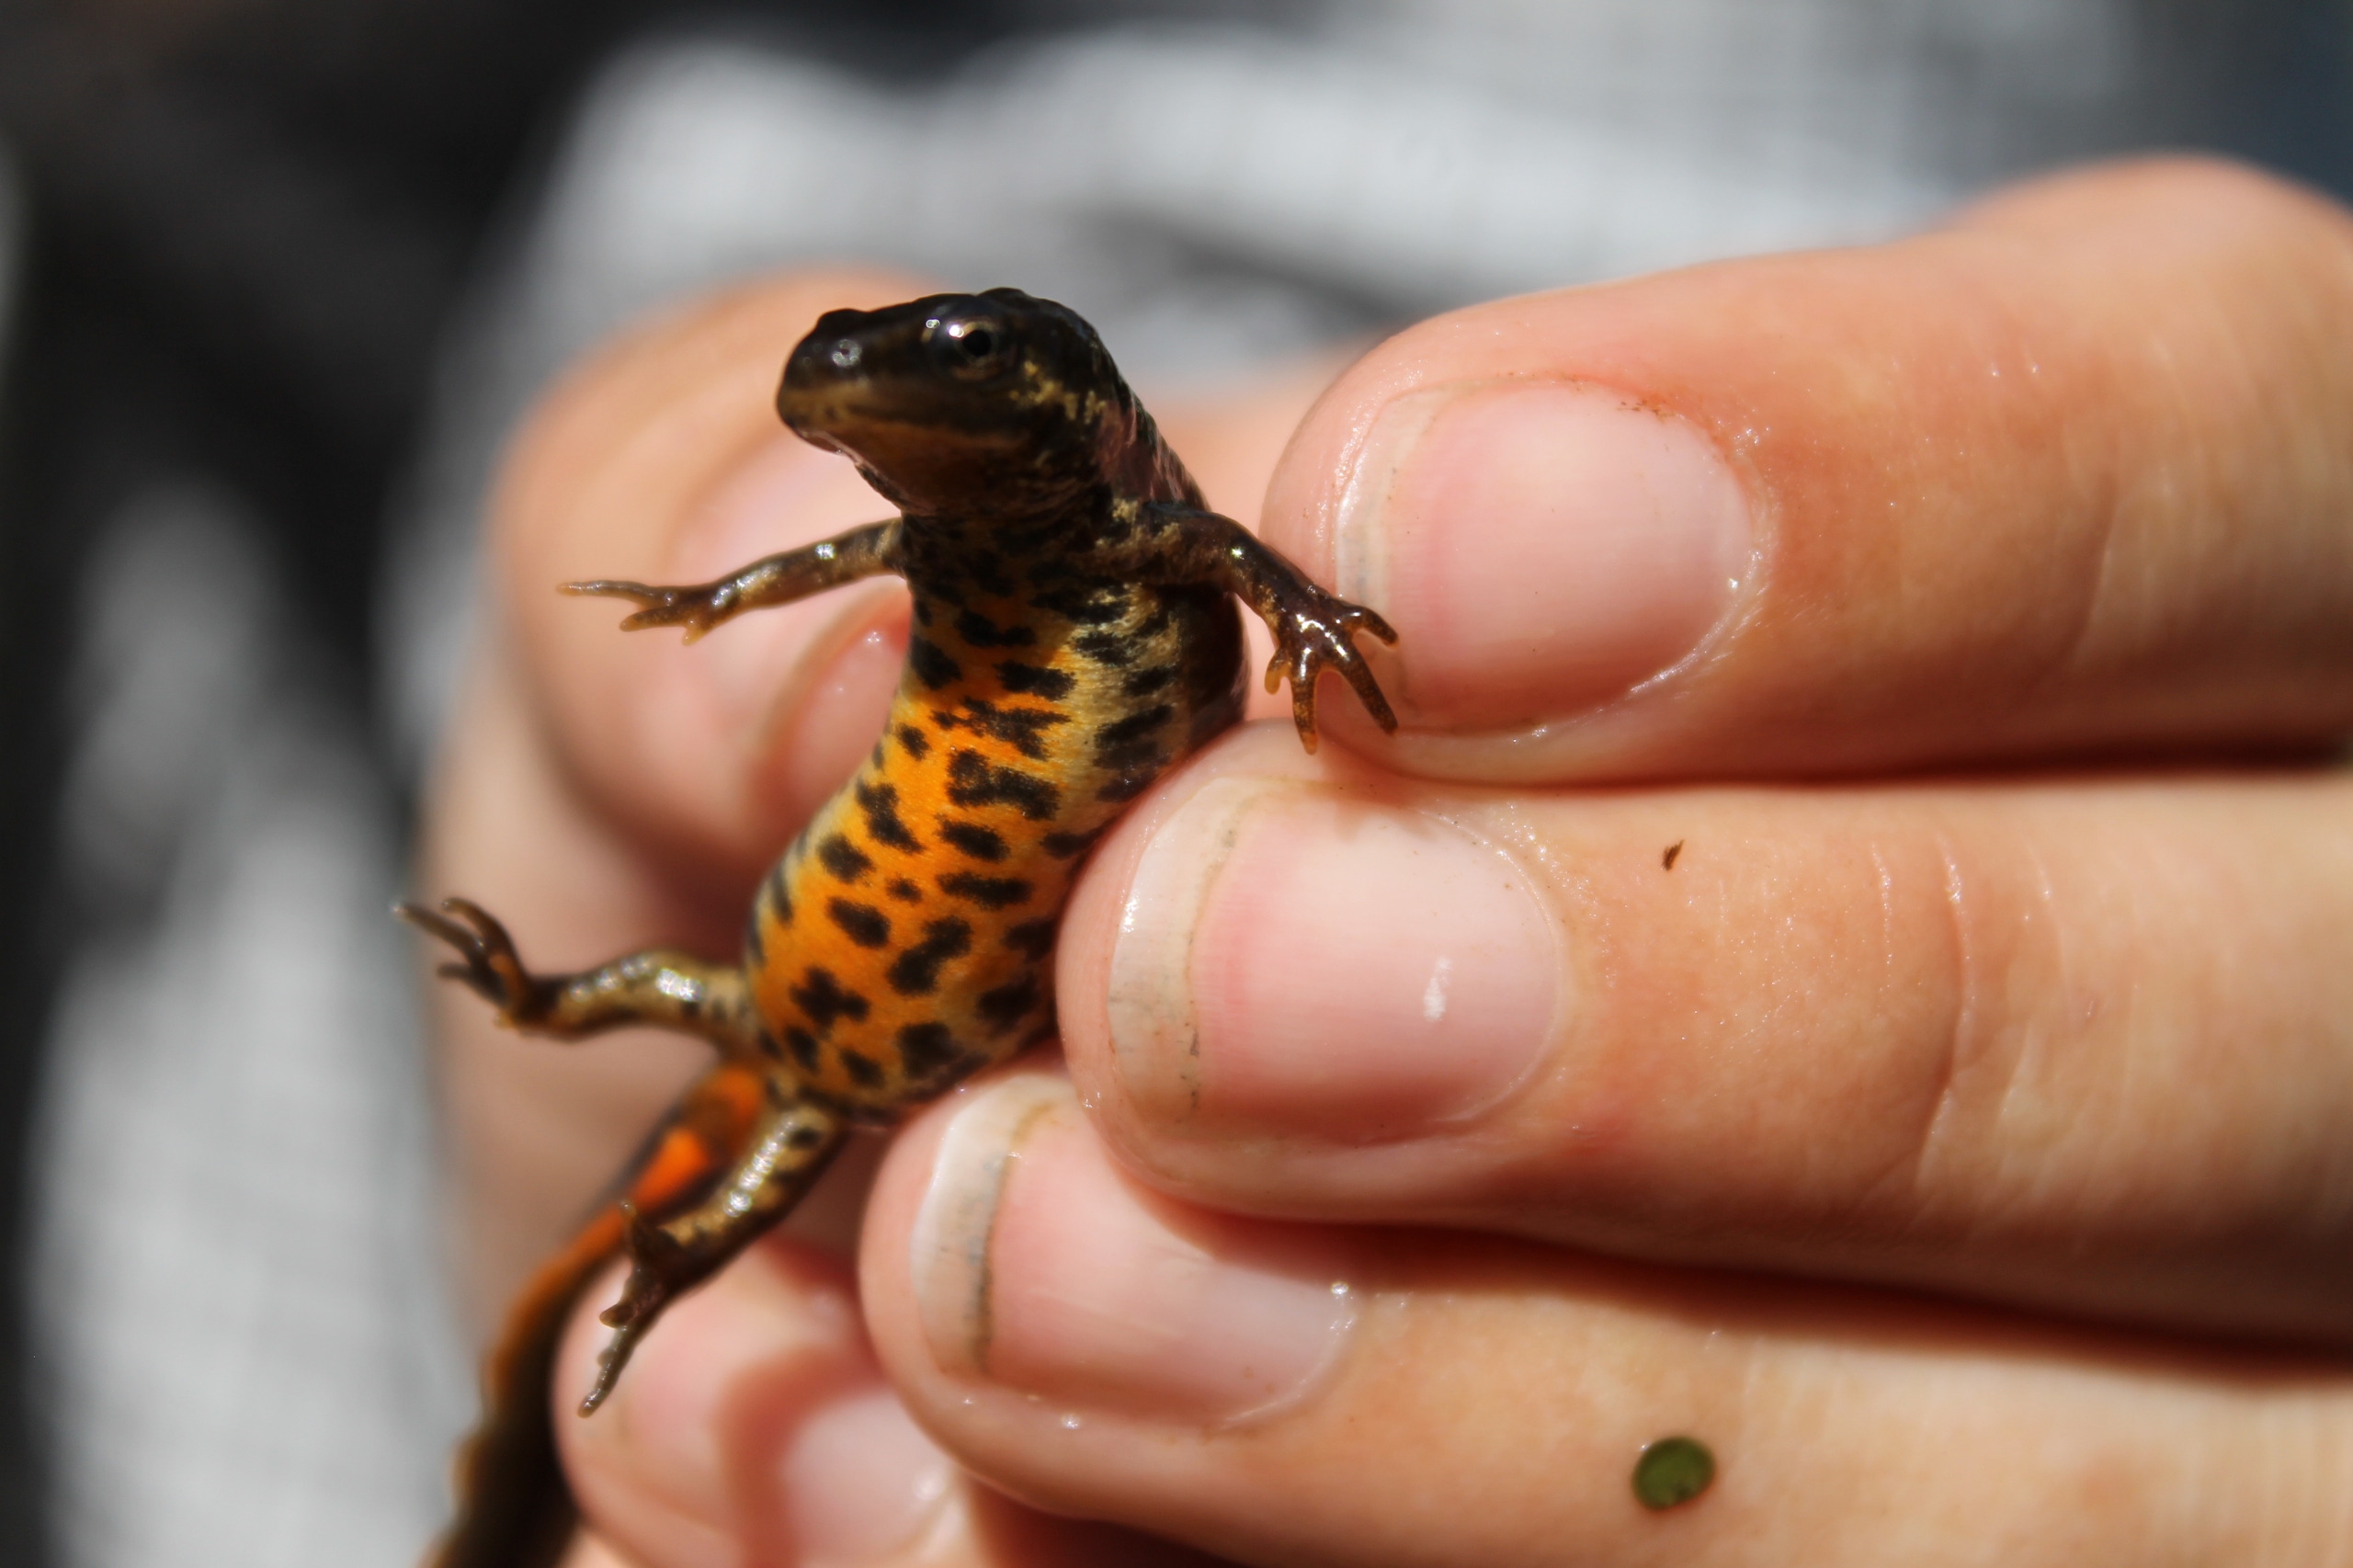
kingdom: Animalia
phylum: Chordata
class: Amphibia
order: Caudata
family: Salamandridae
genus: Lissotriton
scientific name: Lissotriton vulgaris
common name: Lille vandsalamander
